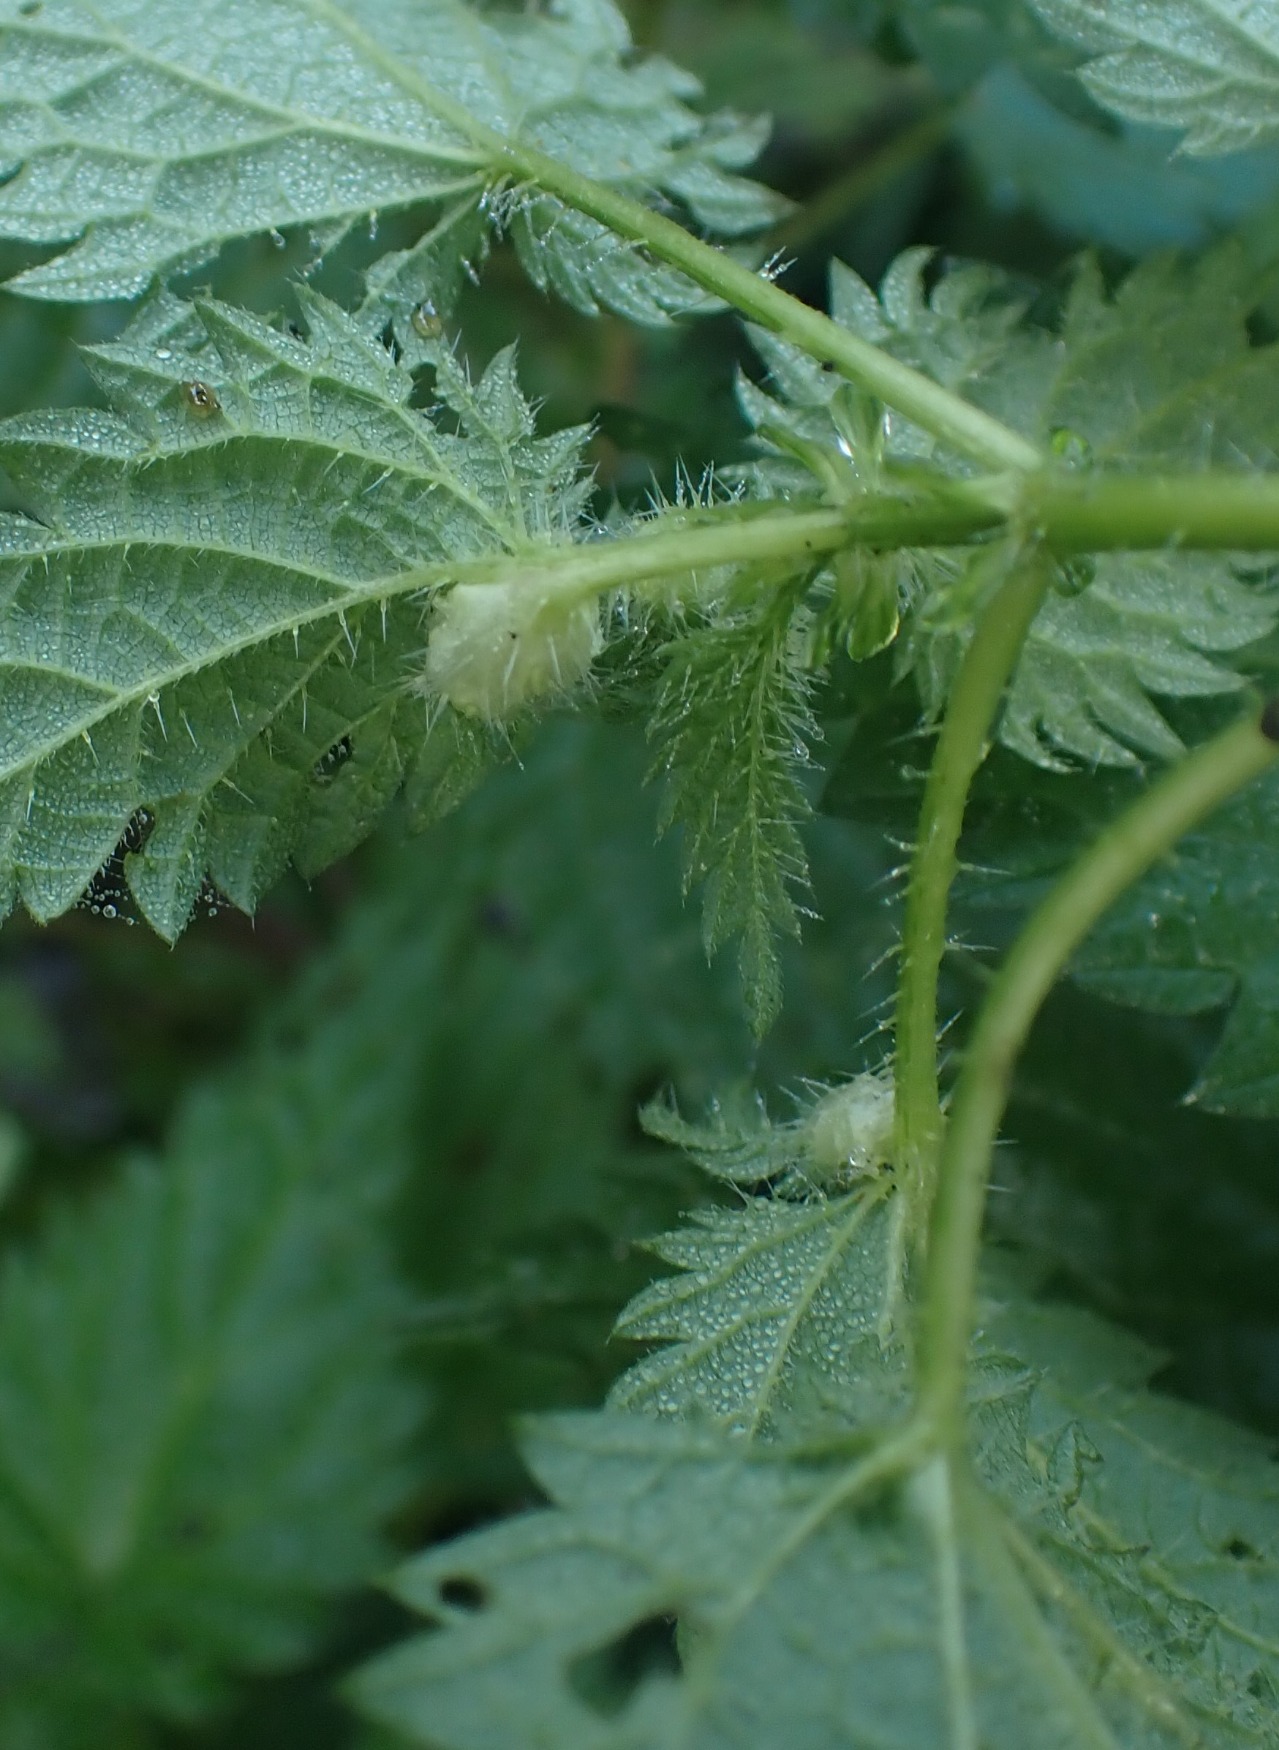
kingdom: Animalia
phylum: Arthropoda
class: Insecta
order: Diptera
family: Cecidomyiidae
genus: Dasineura
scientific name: Dasineura urticae
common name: Nældepunggalmyg
